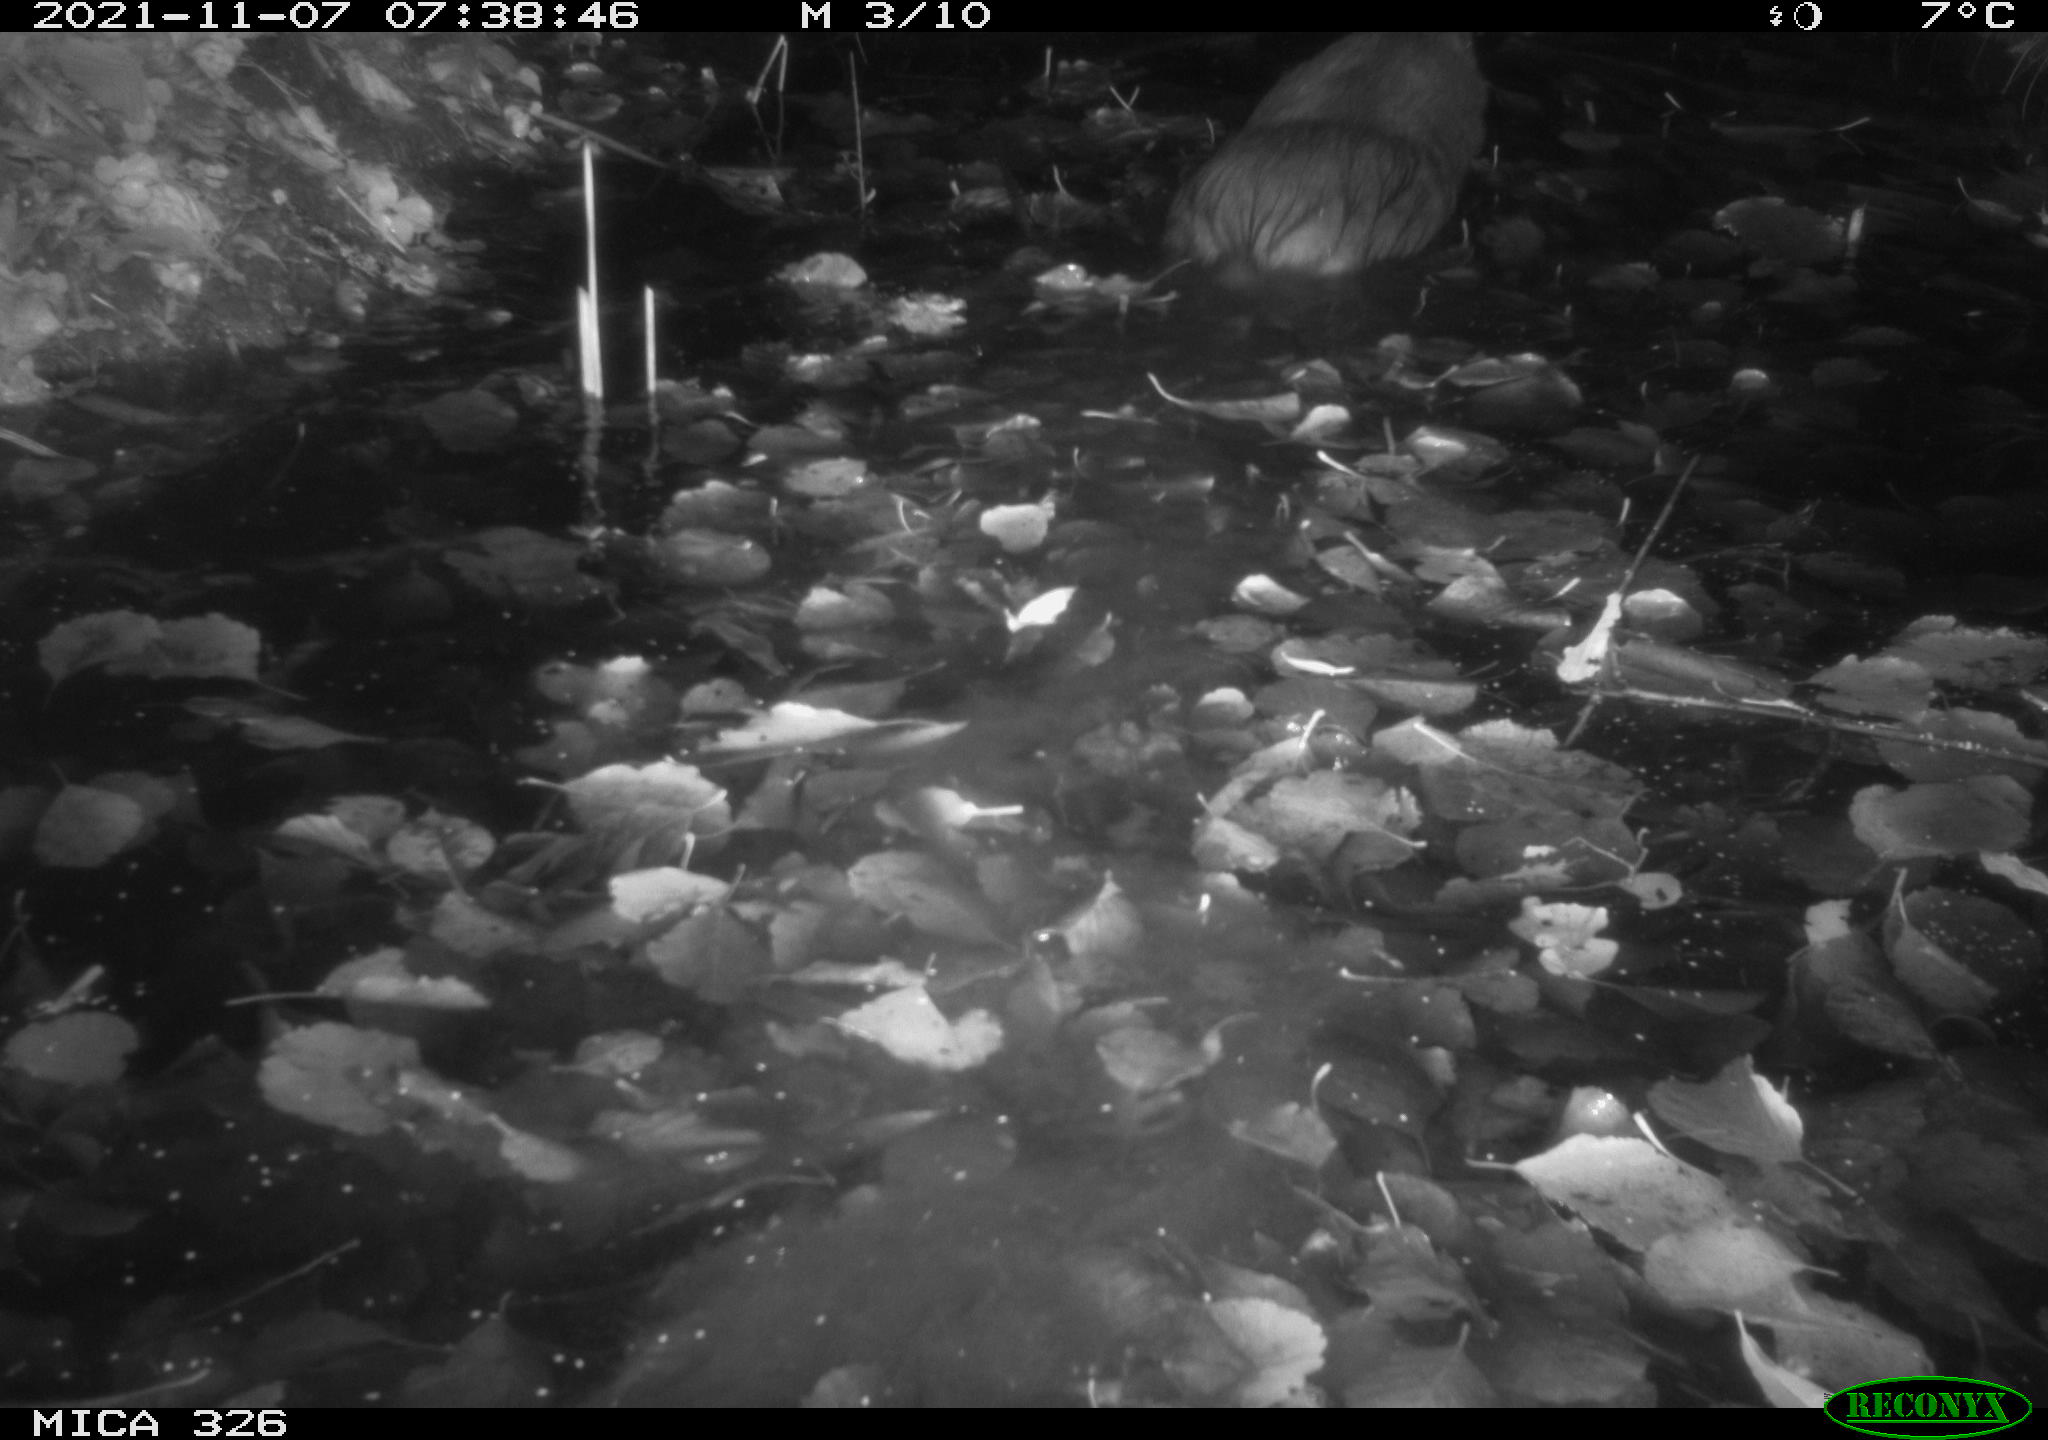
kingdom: Animalia
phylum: Chordata
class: Mammalia
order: Rodentia
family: Myocastoridae
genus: Myocastor
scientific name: Myocastor coypus
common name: Coypu
